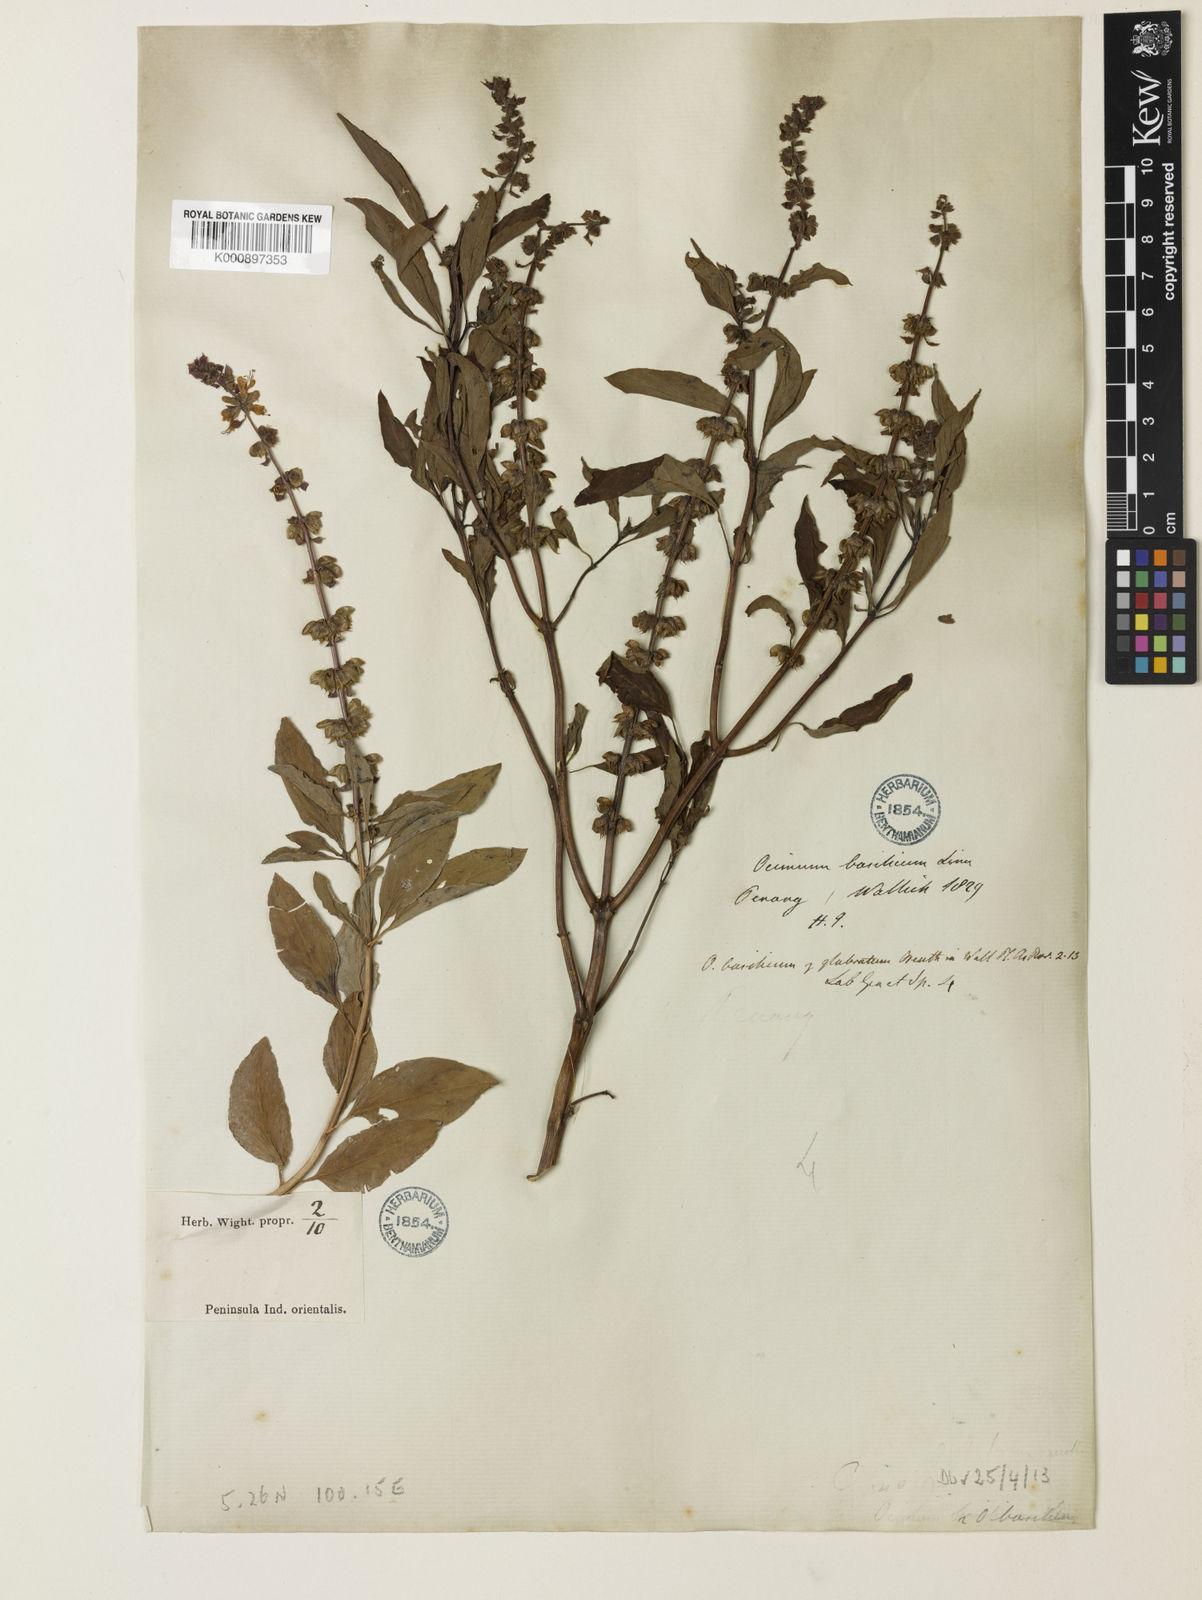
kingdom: Plantae
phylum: Tracheophyta
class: Magnoliopsida
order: Lamiales
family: Lamiaceae
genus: Ocimum
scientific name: Ocimum basilicum
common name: Sweet basil
